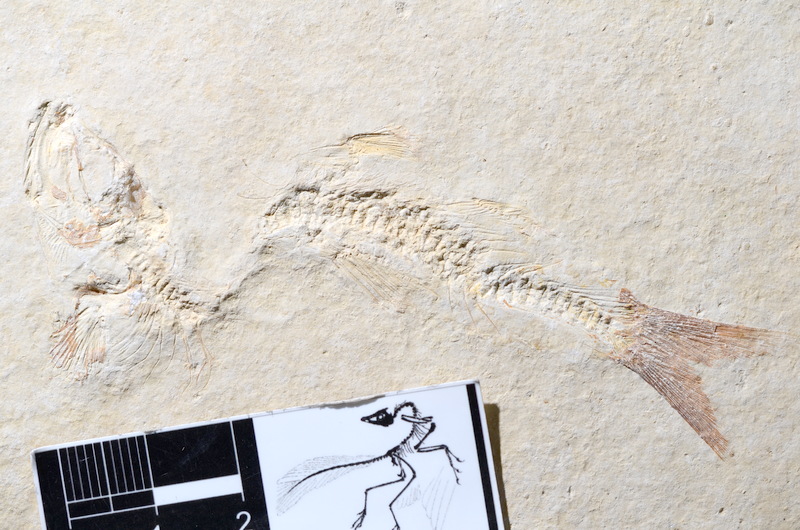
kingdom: Animalia
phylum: Chordata
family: Ascalaboidae
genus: Tharsis
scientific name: Tharsis dubius
